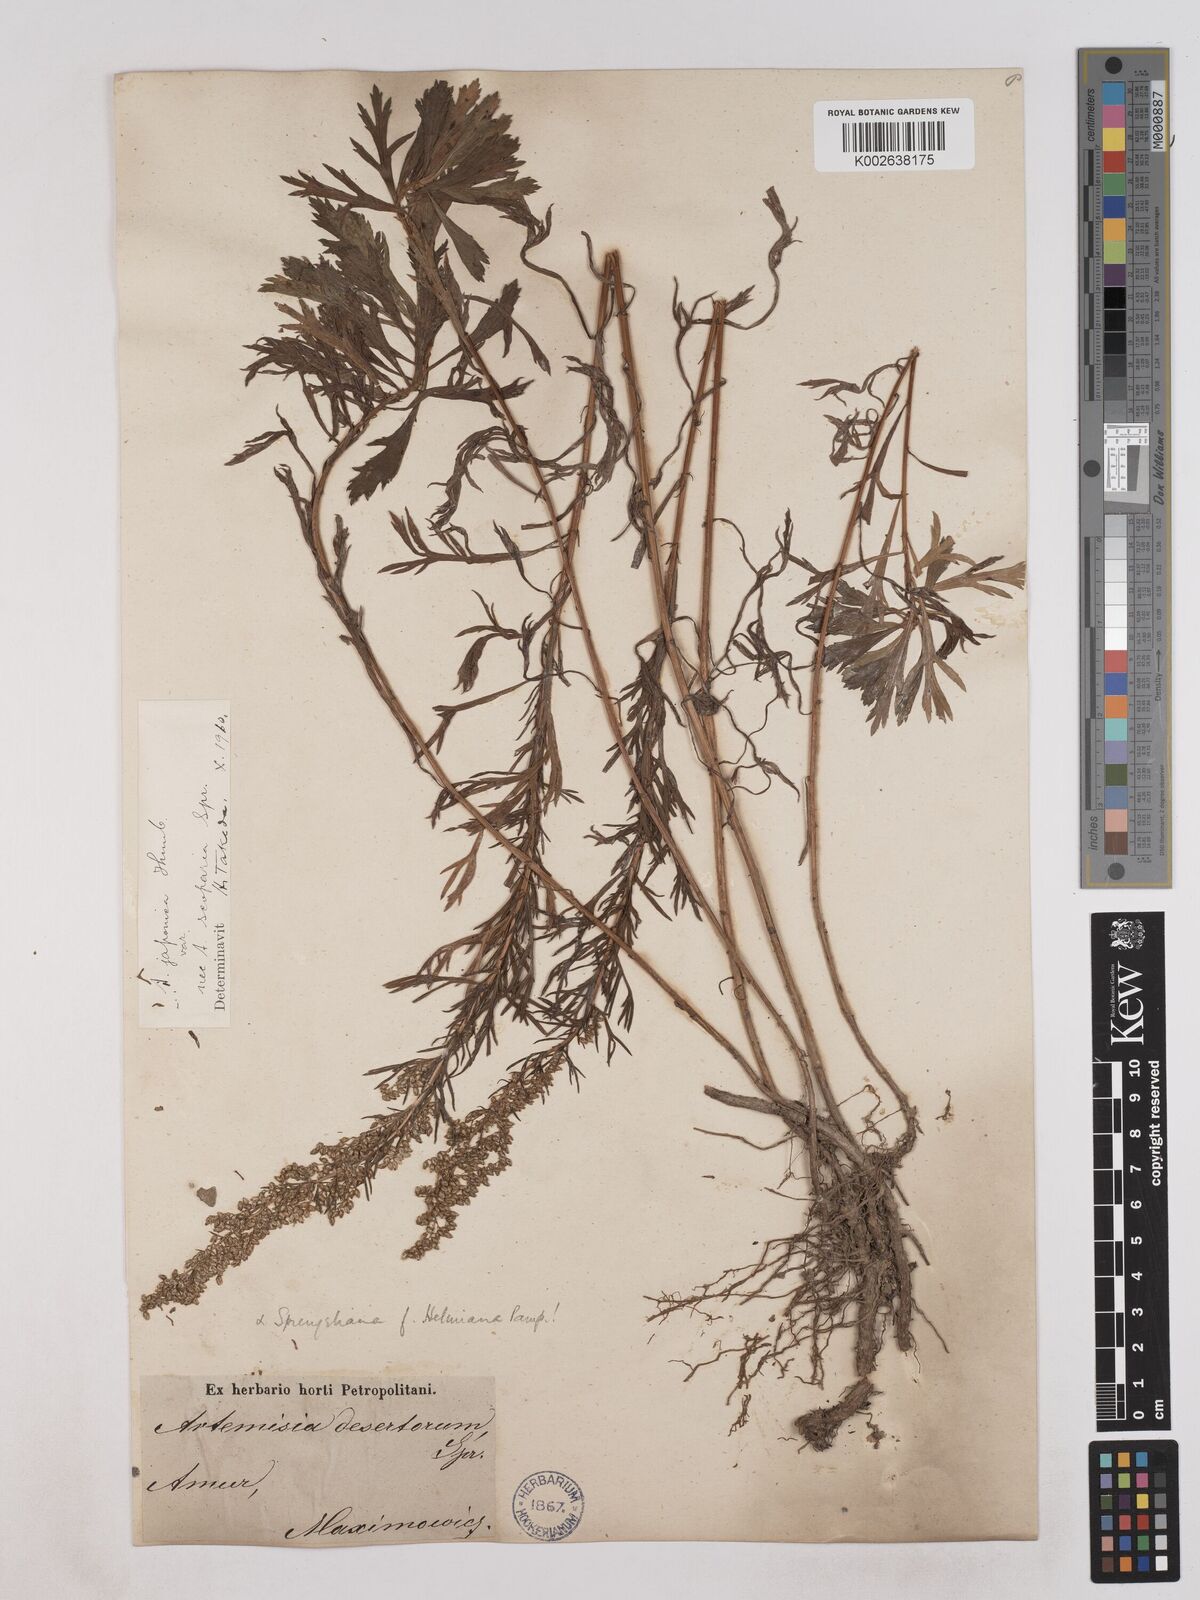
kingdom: Plantae
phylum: Tracheophyta
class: Magnoliopsida
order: Asterales
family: Asteraceae
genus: Artemisia
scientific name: Artemisia desertorum
